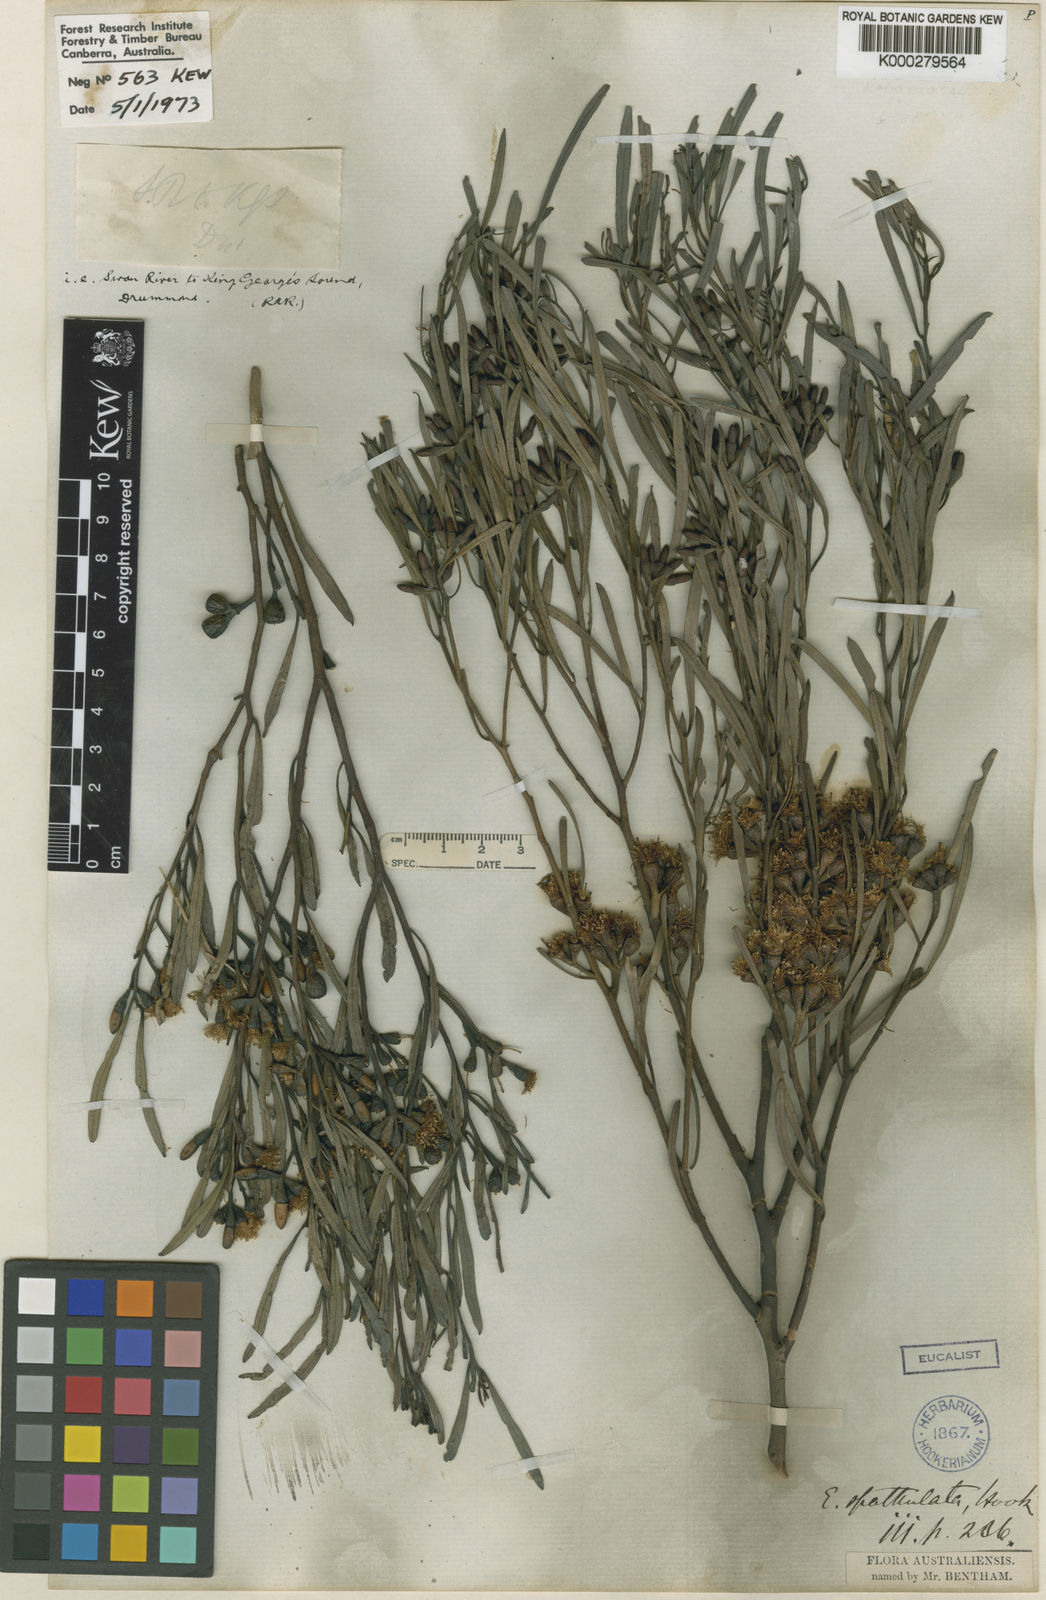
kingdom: Plantae
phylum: Tracheophyta
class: Magnoliopsida
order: Myrtales
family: Myrtaceae
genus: Eucalyptus
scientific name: Eucalyptus spathulata
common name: Swamp mallet
